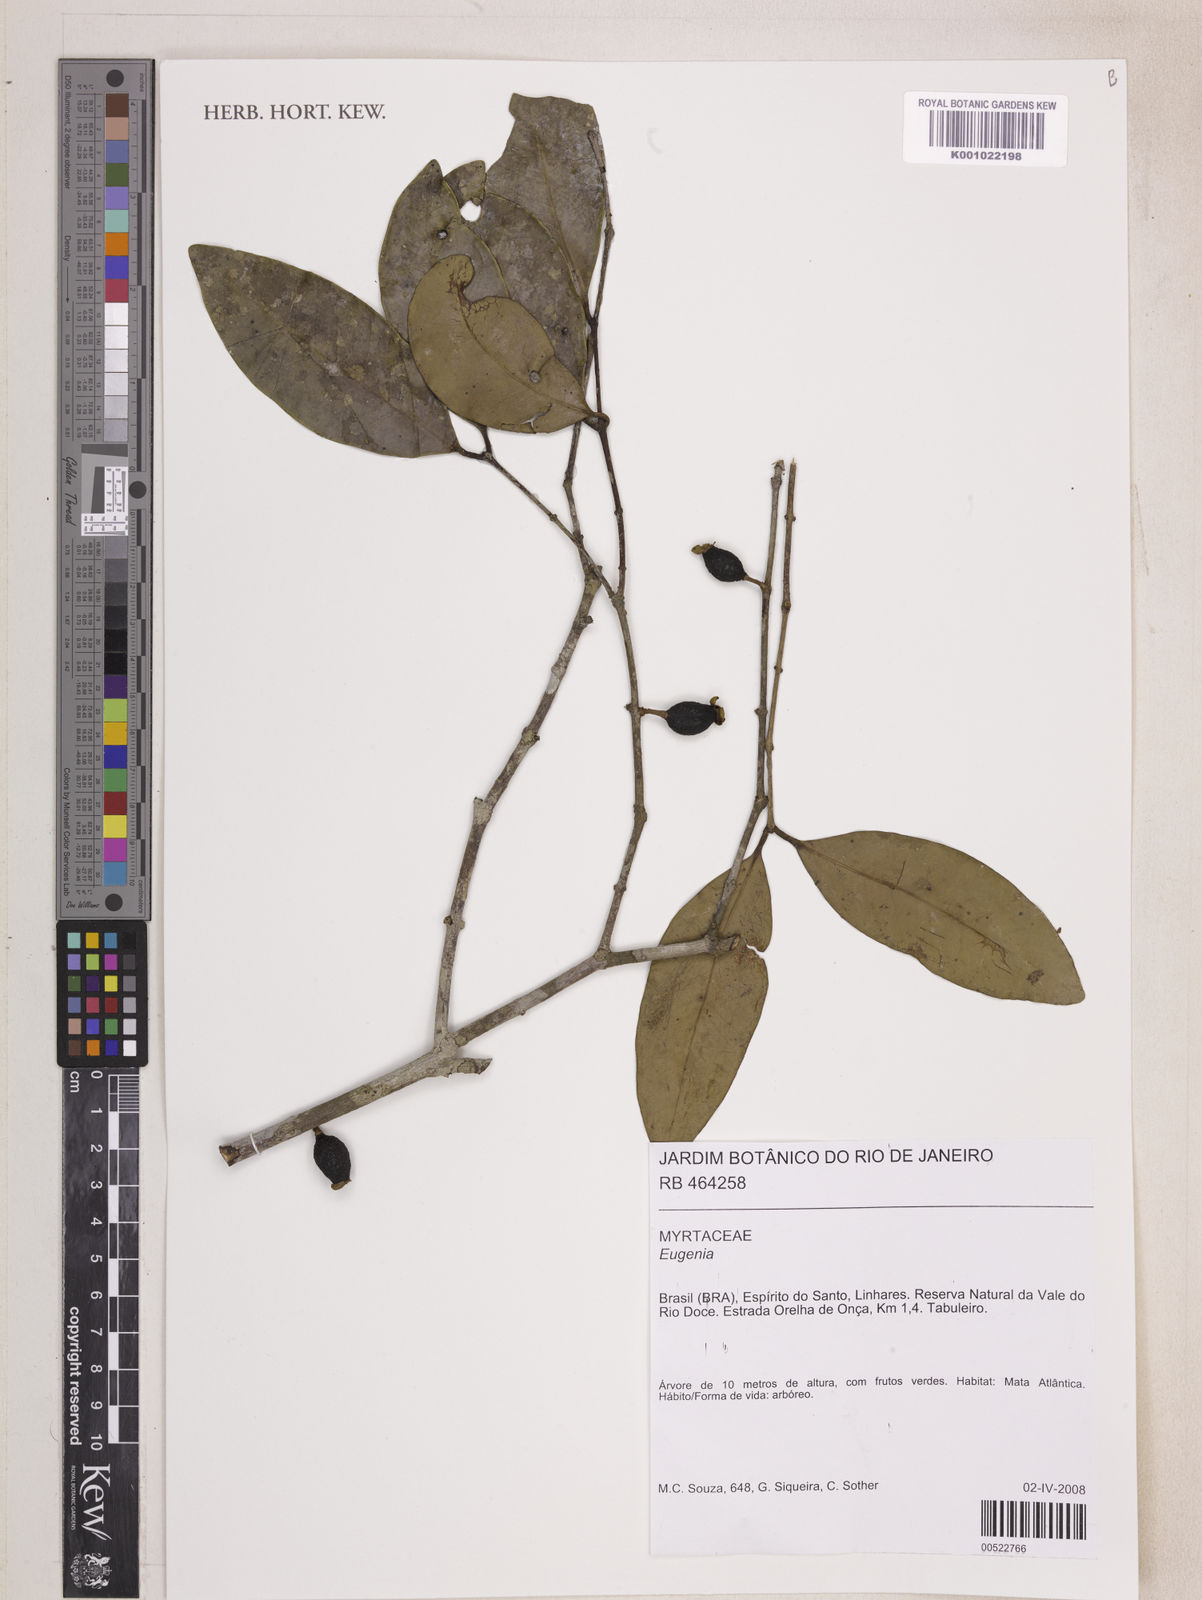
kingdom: Plantae
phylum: Tracheophyta
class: Magnoliopsida
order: Myrtales
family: Myrtaceae
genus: Eugenia
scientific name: Eugenia melanogyna
